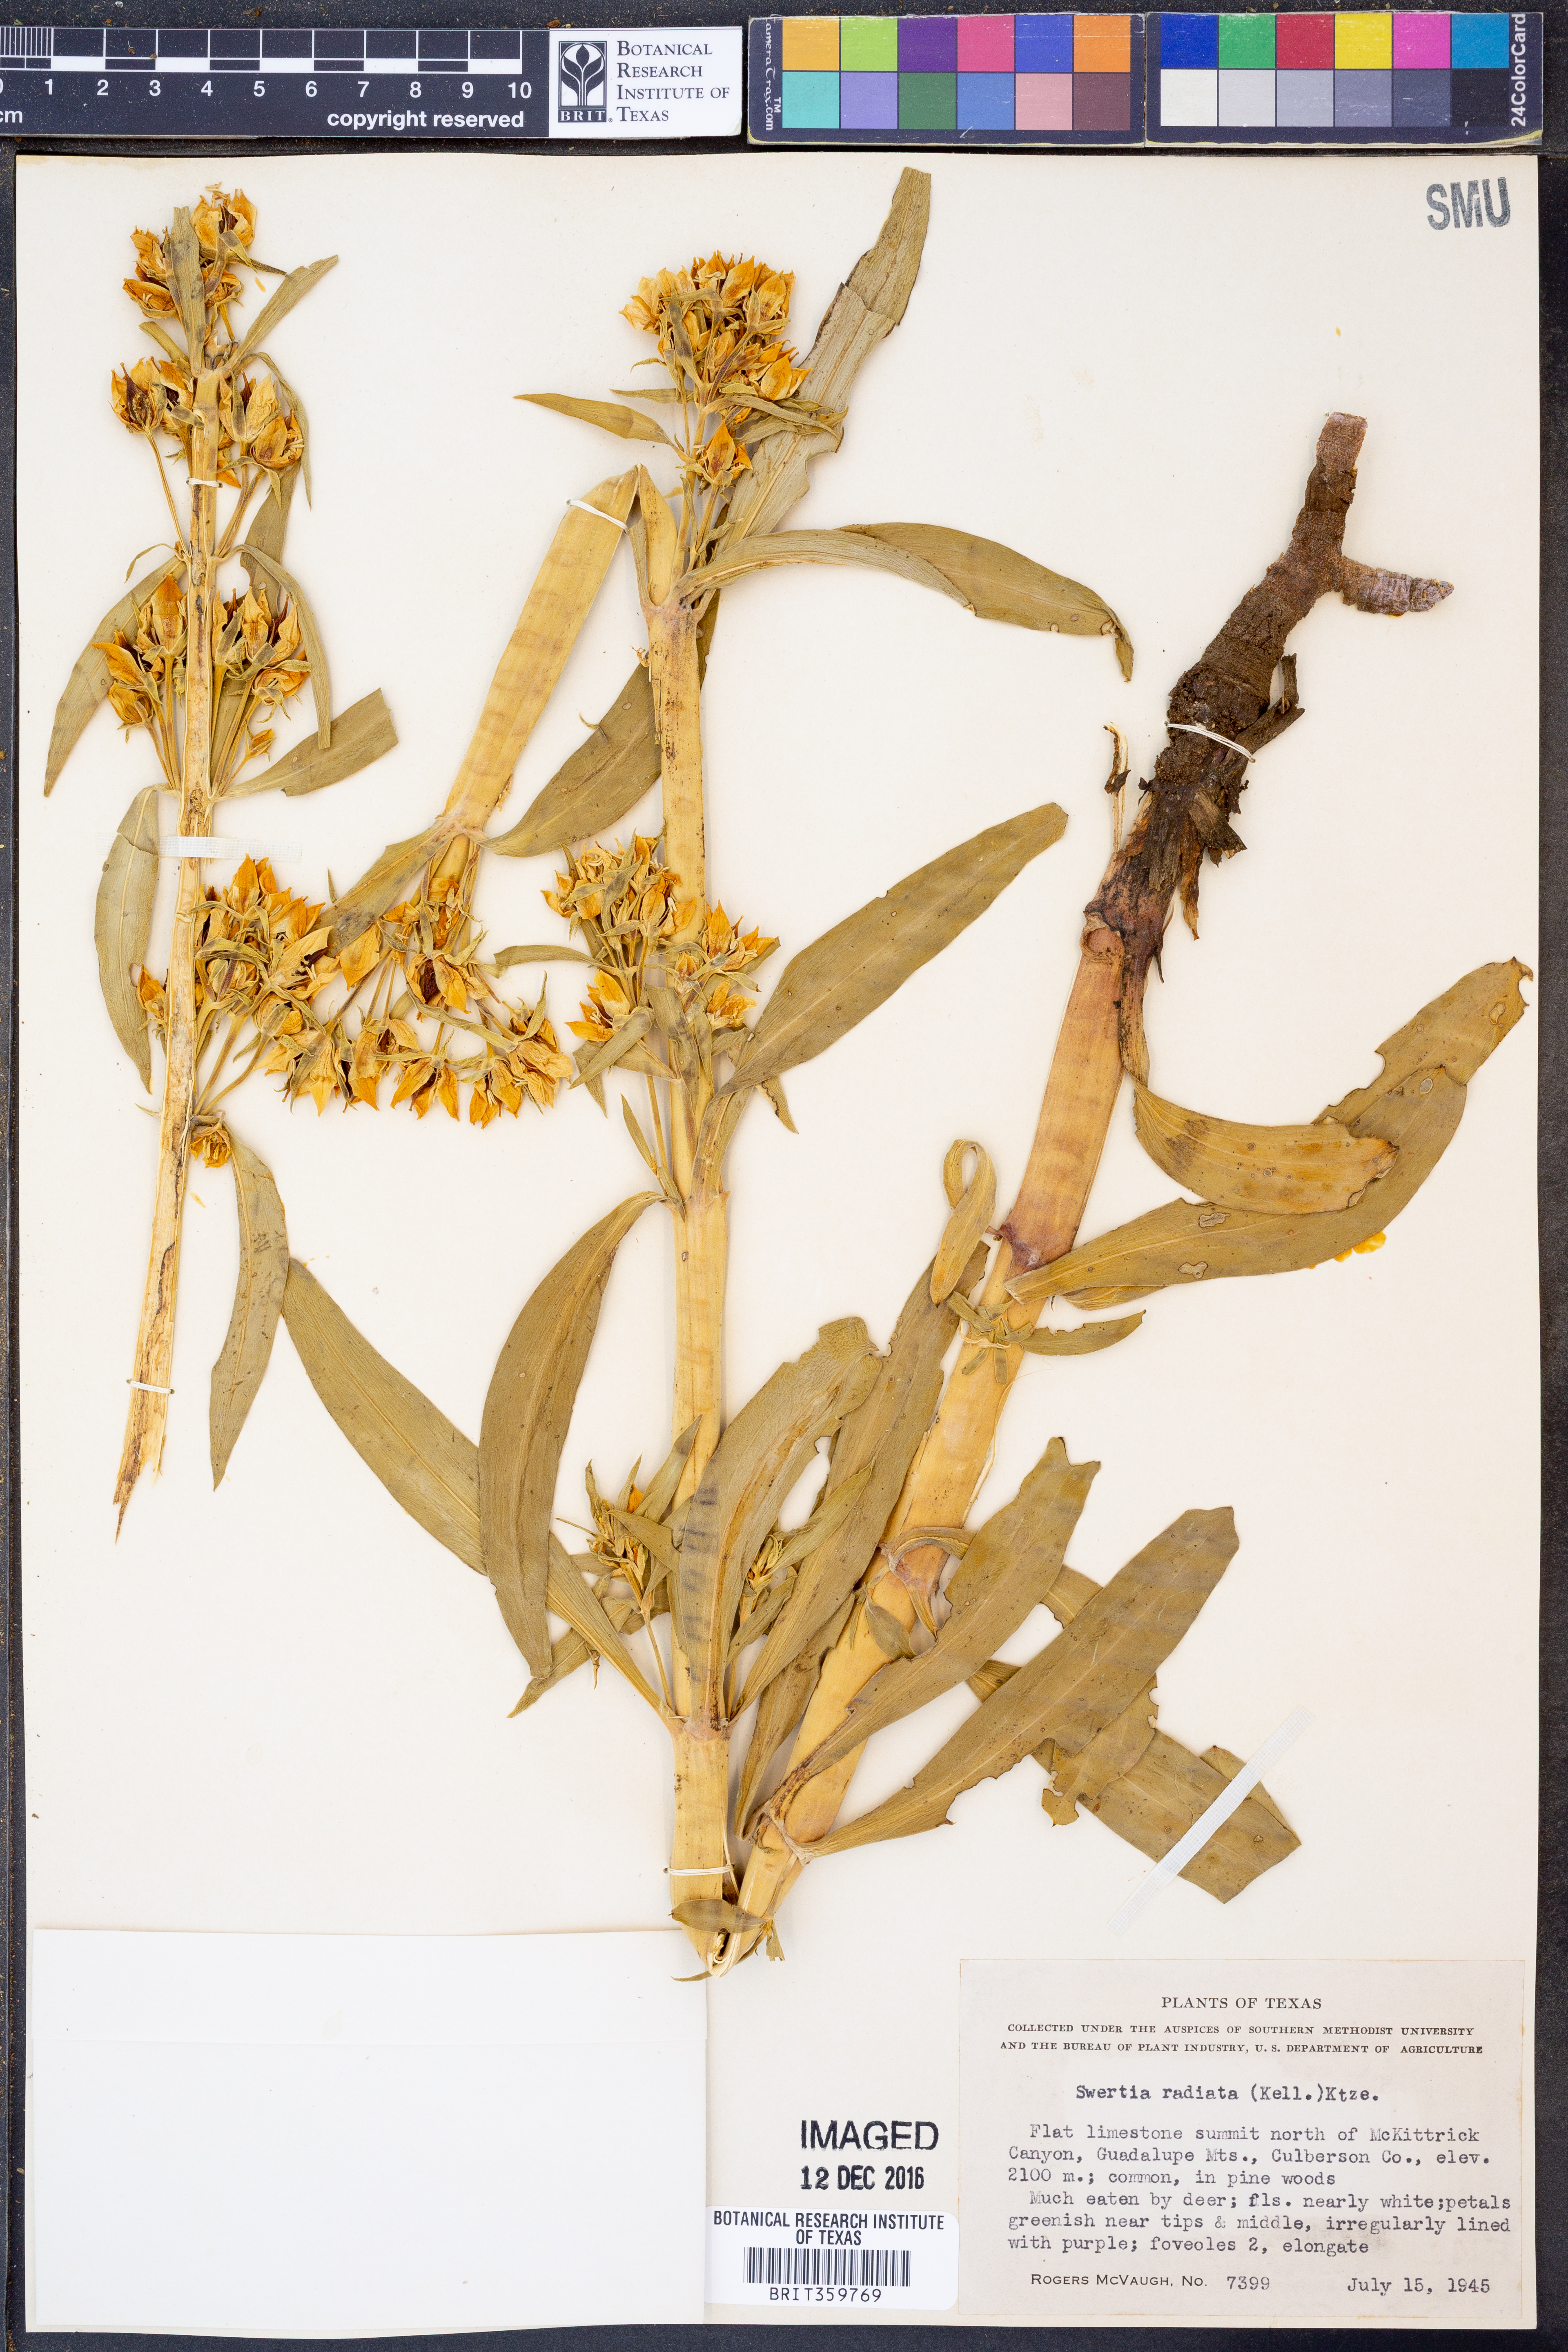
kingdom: Plantae
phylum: Tracheophyta
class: Magnoliopsida
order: Gentianales
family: Gentianaceae
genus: Frasera
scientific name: Frasera speciosa
